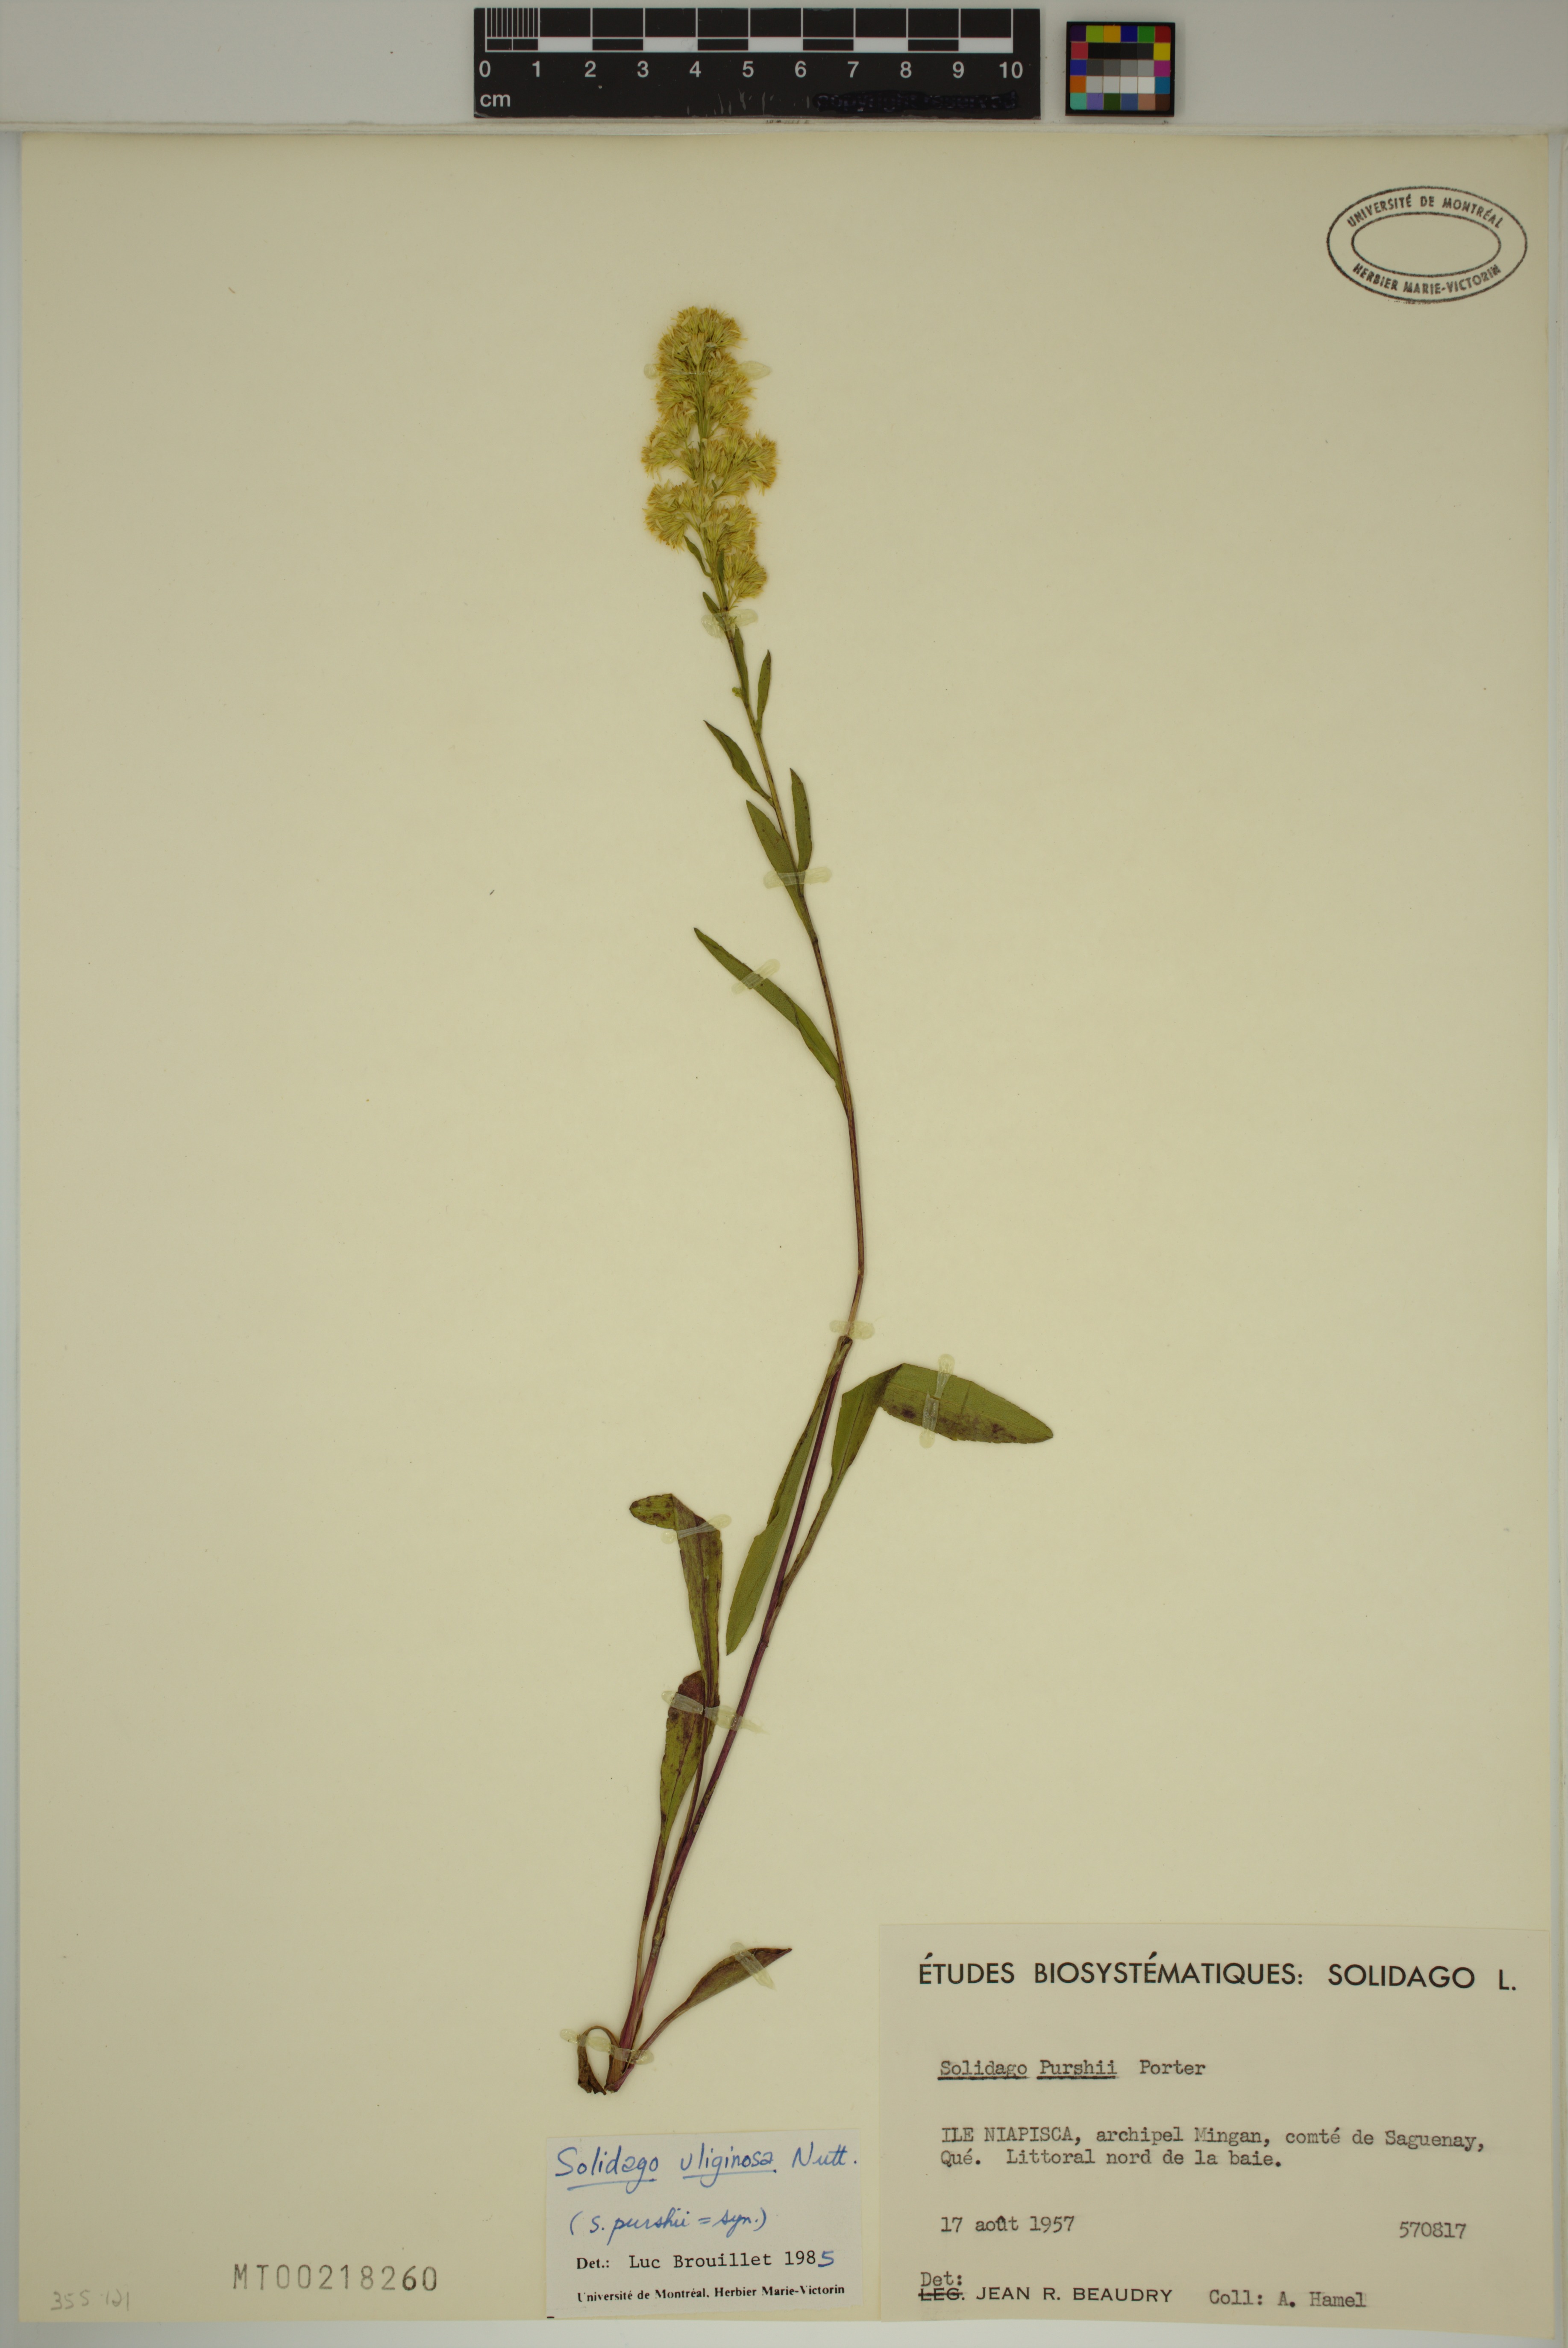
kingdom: Plantae
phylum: Tracheophyta
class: Magnoliopsida
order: Asterales
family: Asteraceae
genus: Solidago
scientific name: Solidago uliginosa
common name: Bog goldenrod
